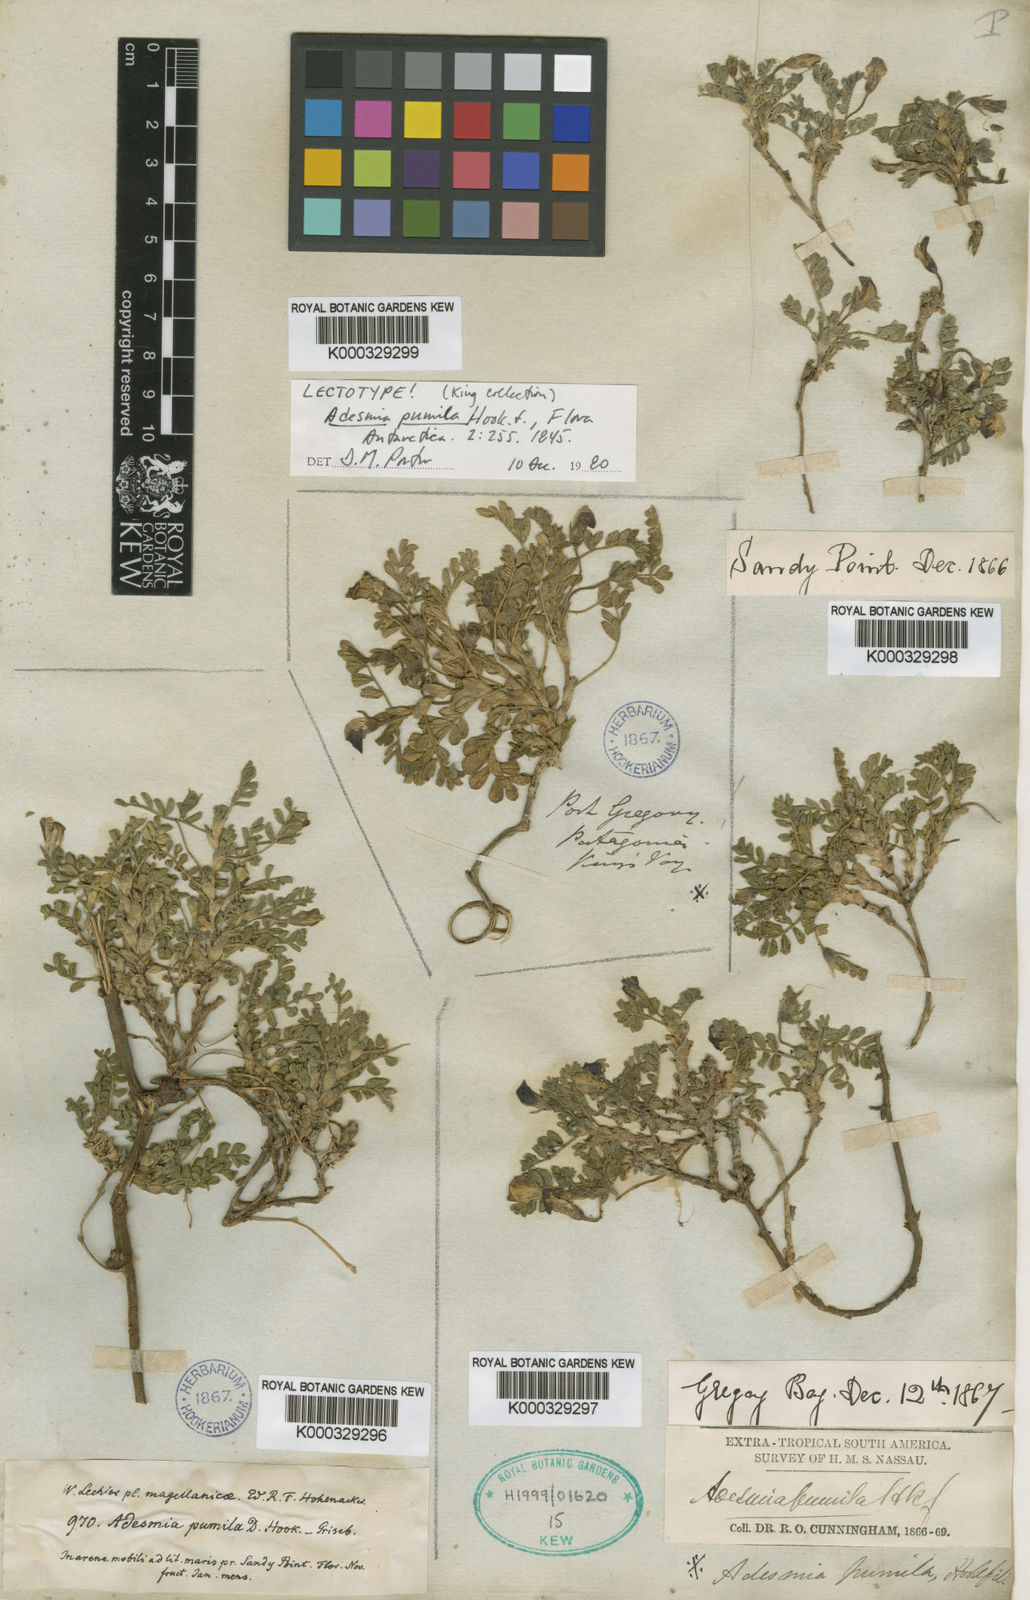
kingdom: Plantae
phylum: Tracheophyta
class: Magnoliopsida
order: Fabales
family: Fabaceae
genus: Adesmia
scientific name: Adesmia pumila
